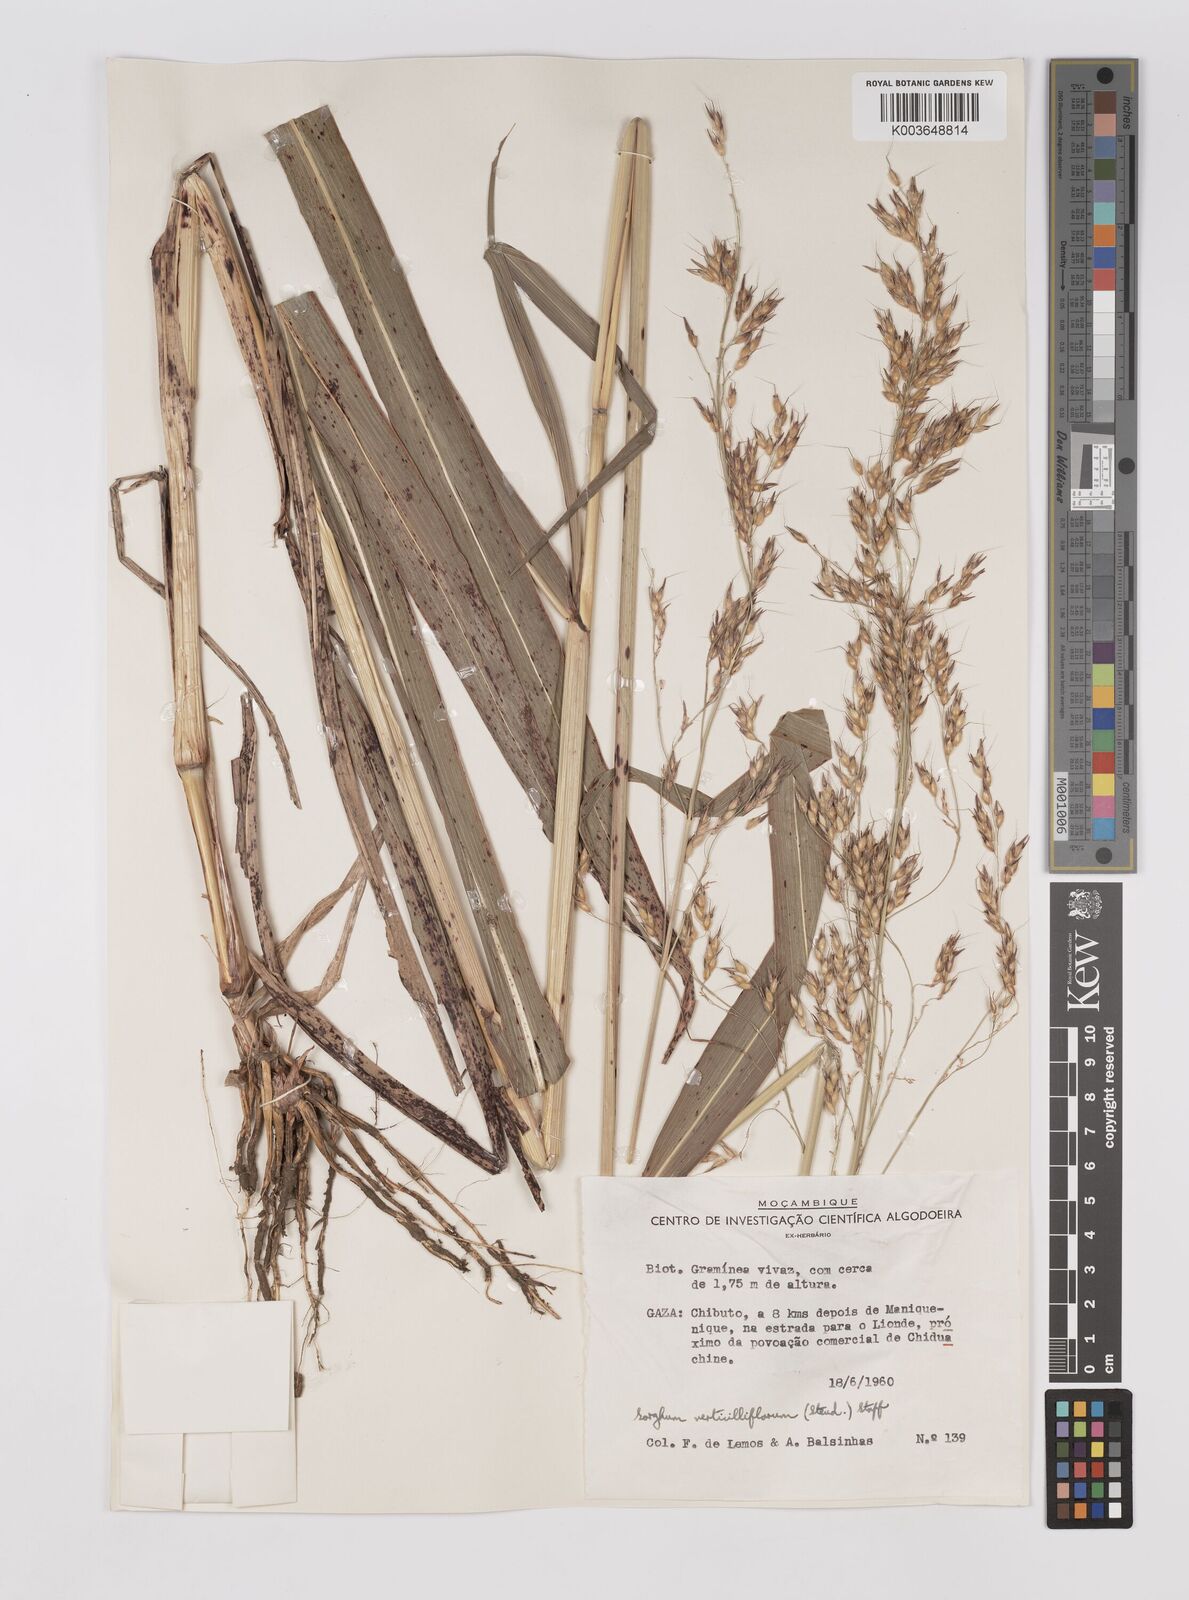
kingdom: Plantae
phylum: Tracheophyta
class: Liliopsida
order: Poales
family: Poaceae
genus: Sorghum
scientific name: Sorghum arundinaceum
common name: Sorghum
